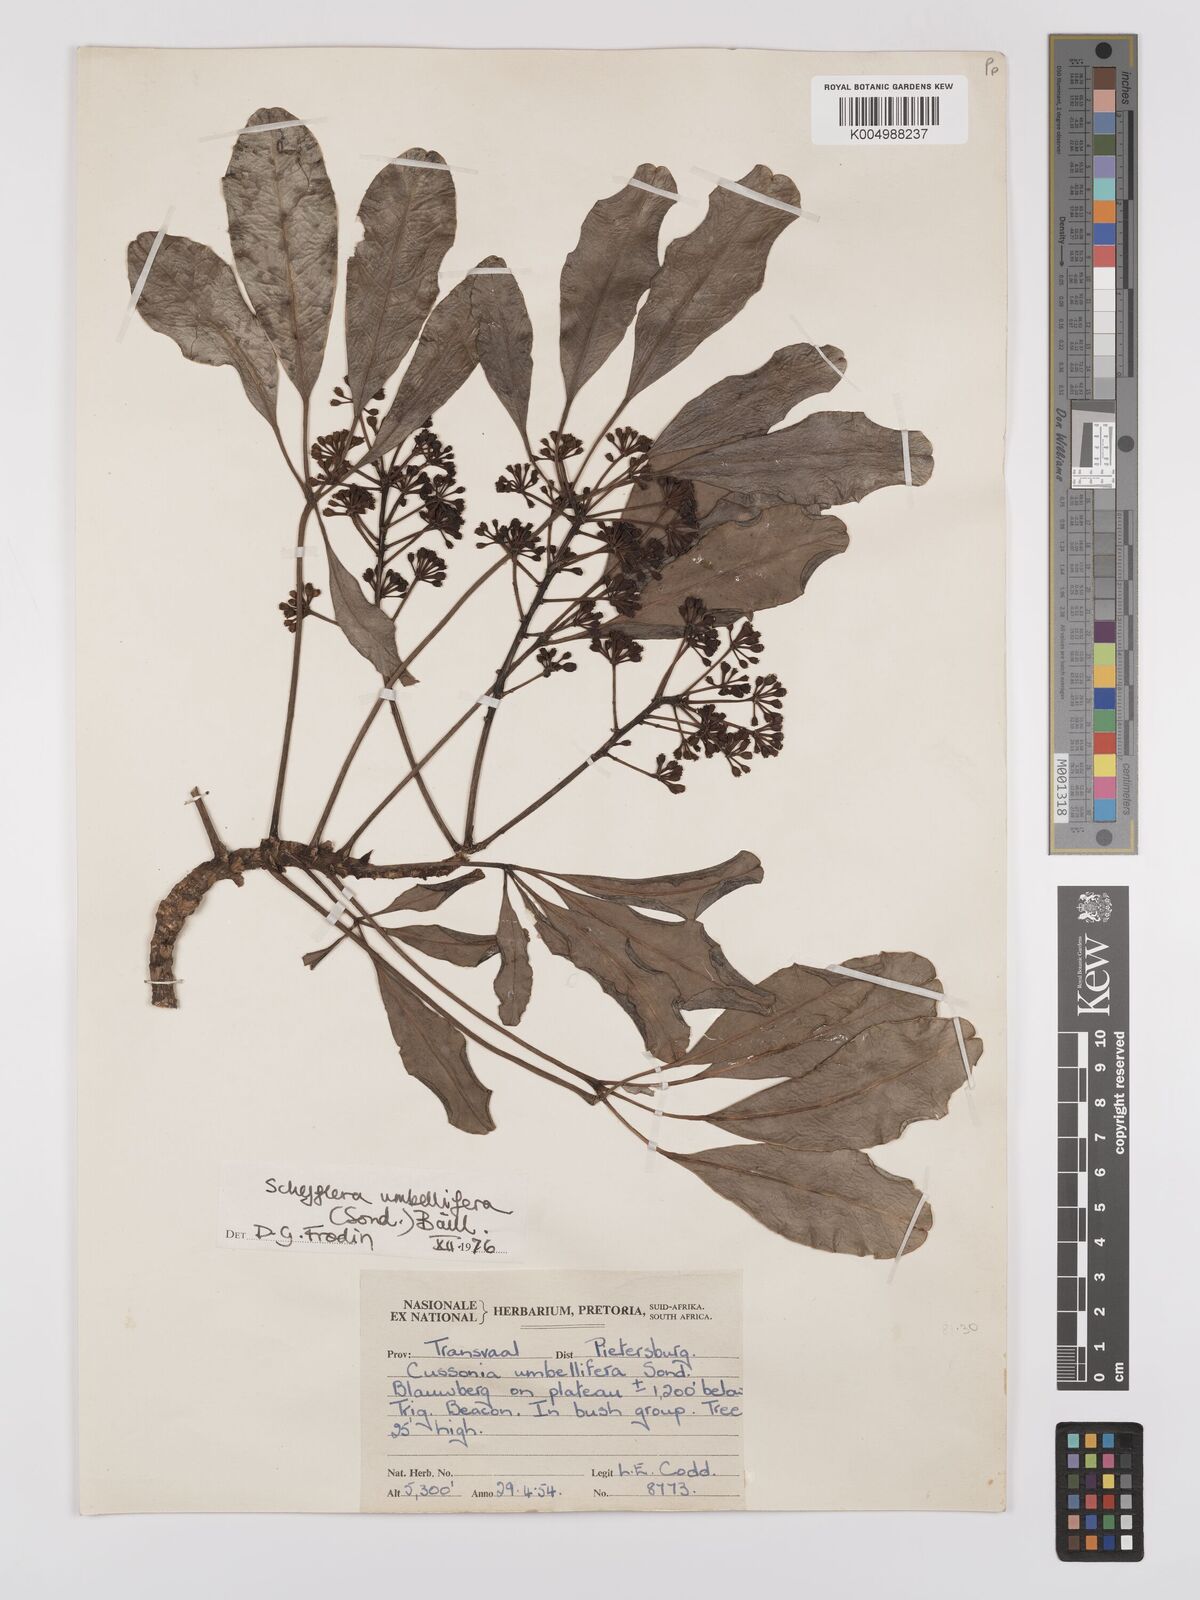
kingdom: Plantae
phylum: Tracheophyta
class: Magnoliopsida
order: Apiales
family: Araliaceae
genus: Neocussonia
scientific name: Neocussonia umbellifera
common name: False cabbage tree
